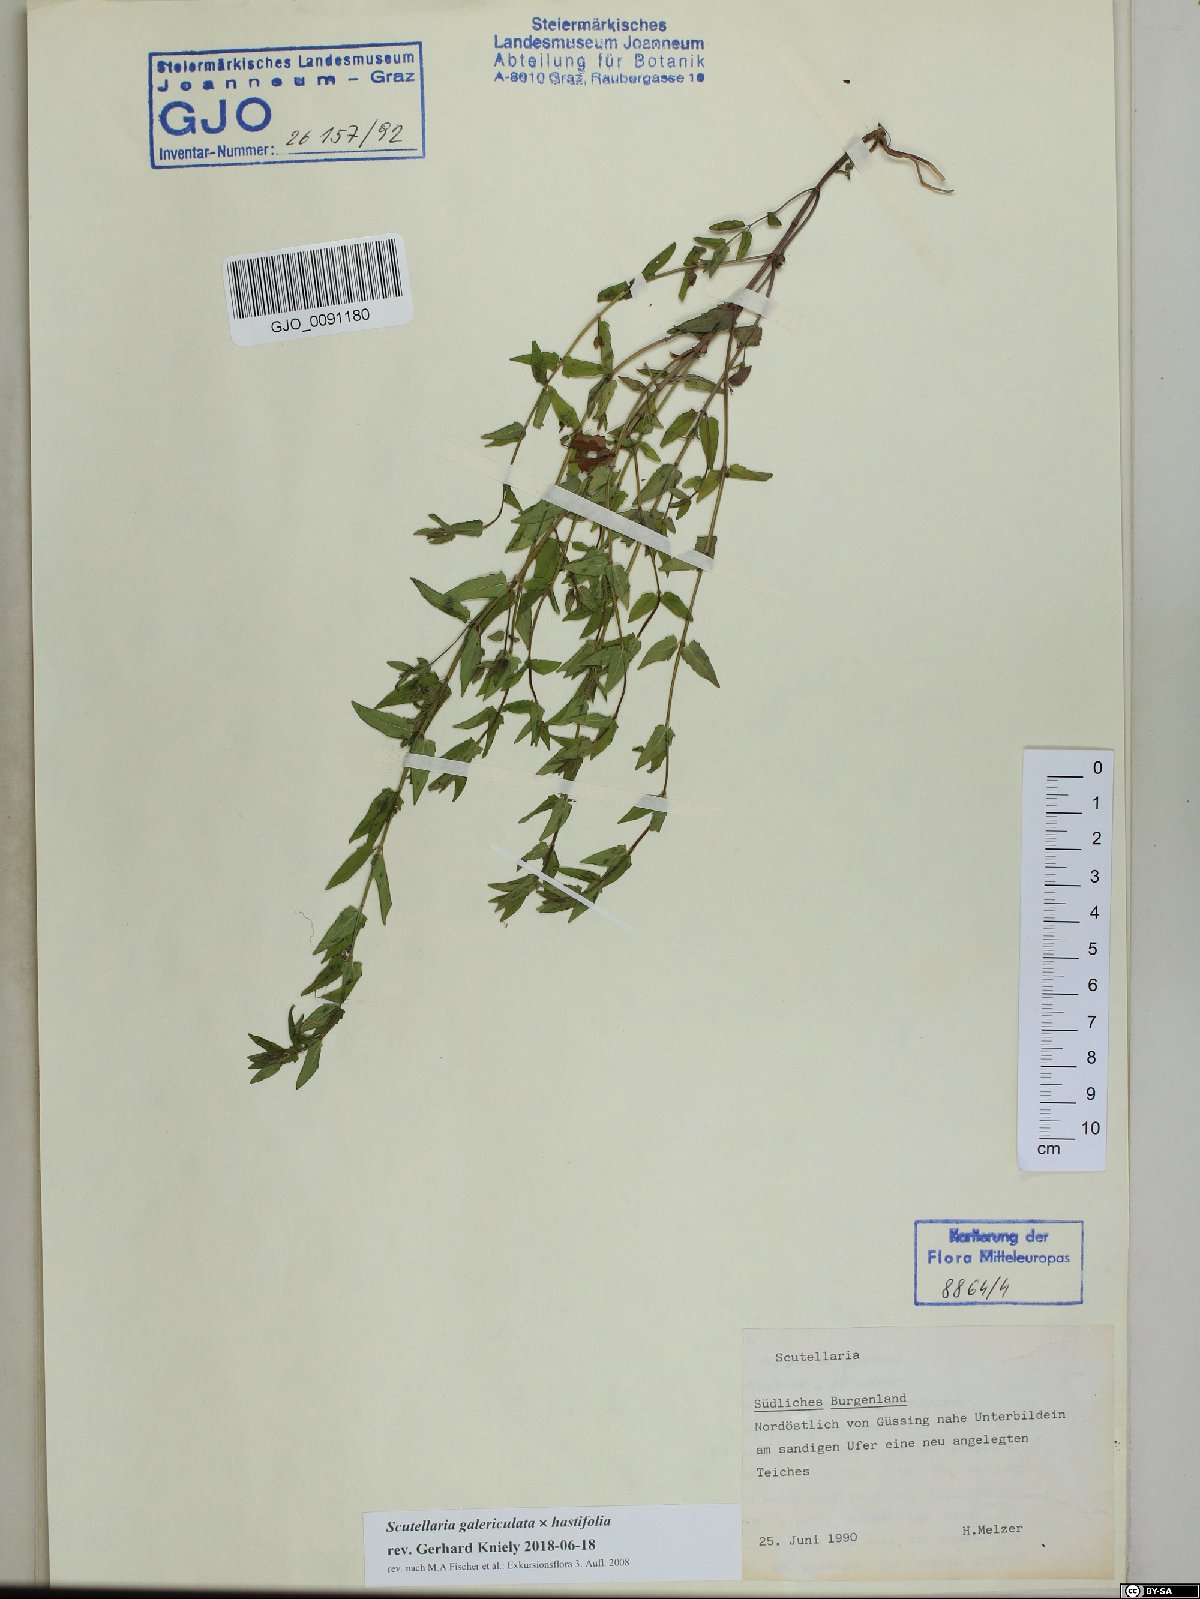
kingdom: Plantae
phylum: Tracheophyta
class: Magnoliopsida
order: Lamiales
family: Lamiaceae
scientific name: Lamiaceae
